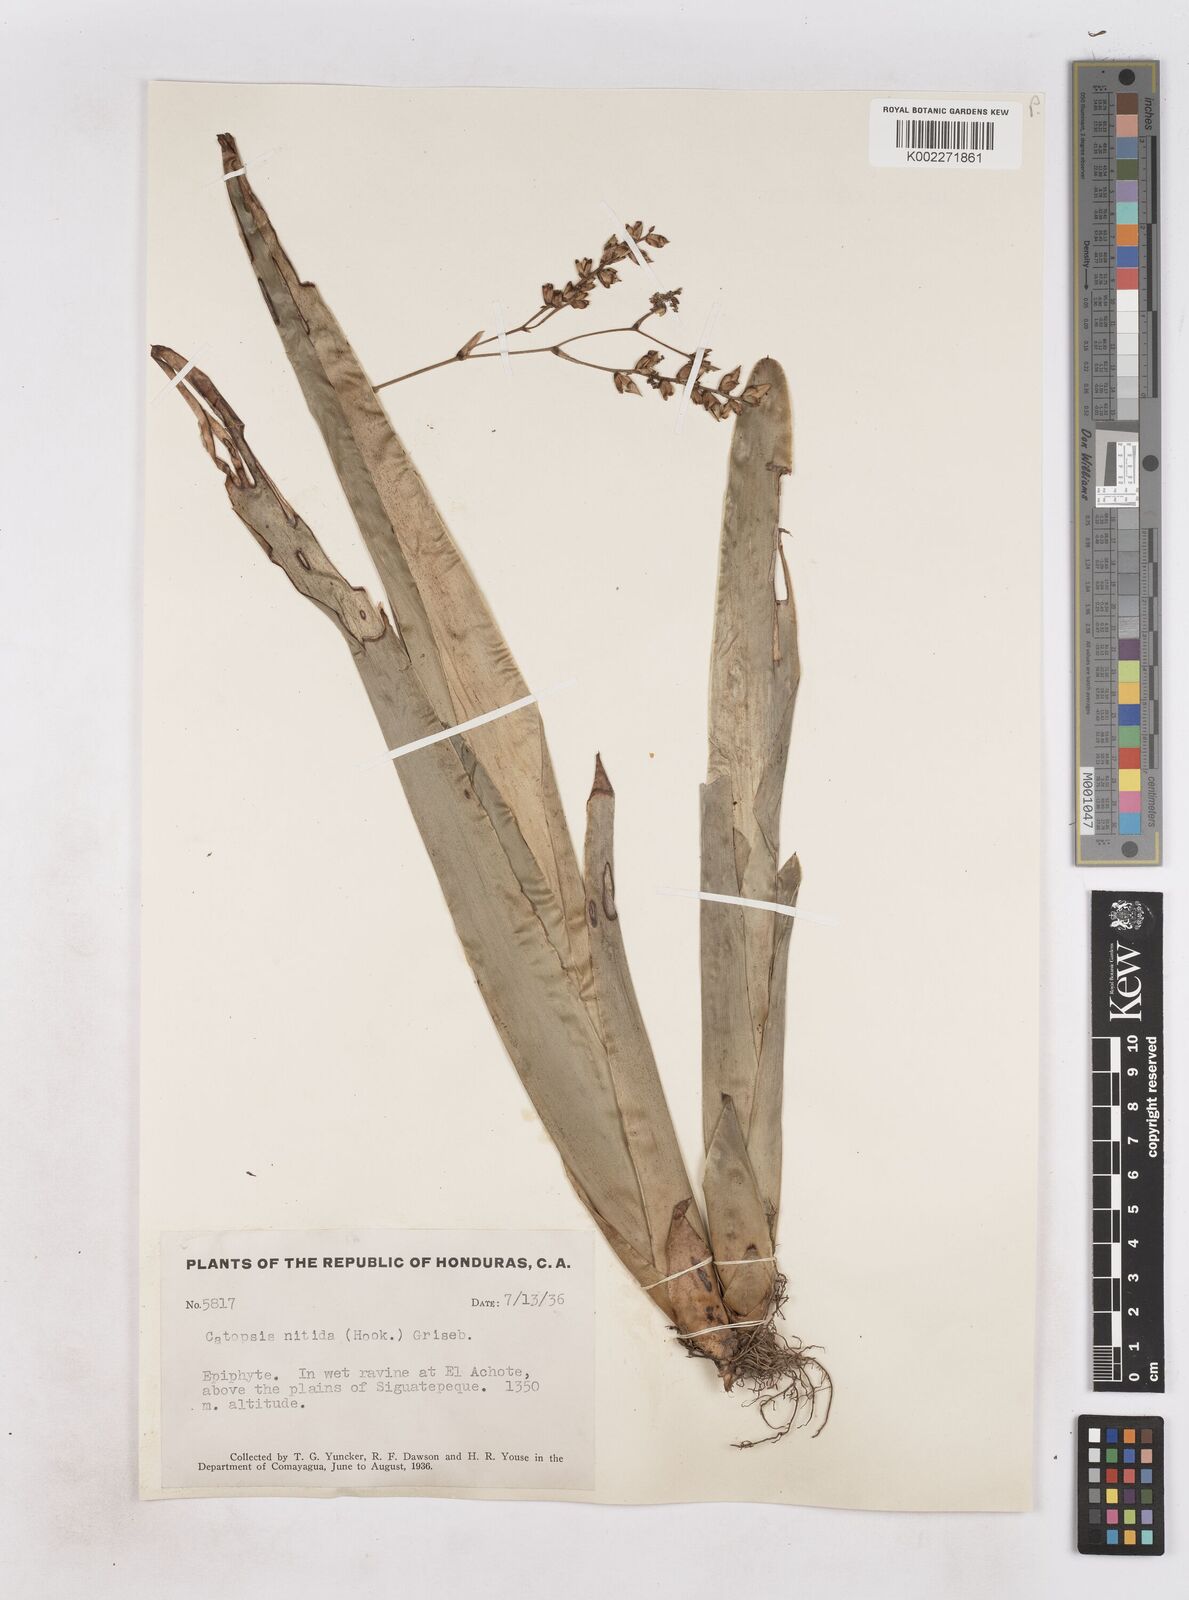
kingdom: Plantae
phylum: Tracheophyta
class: Liliopsida
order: Poales
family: Bromeliaceae
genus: Catopsis
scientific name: Catopsis nitida
